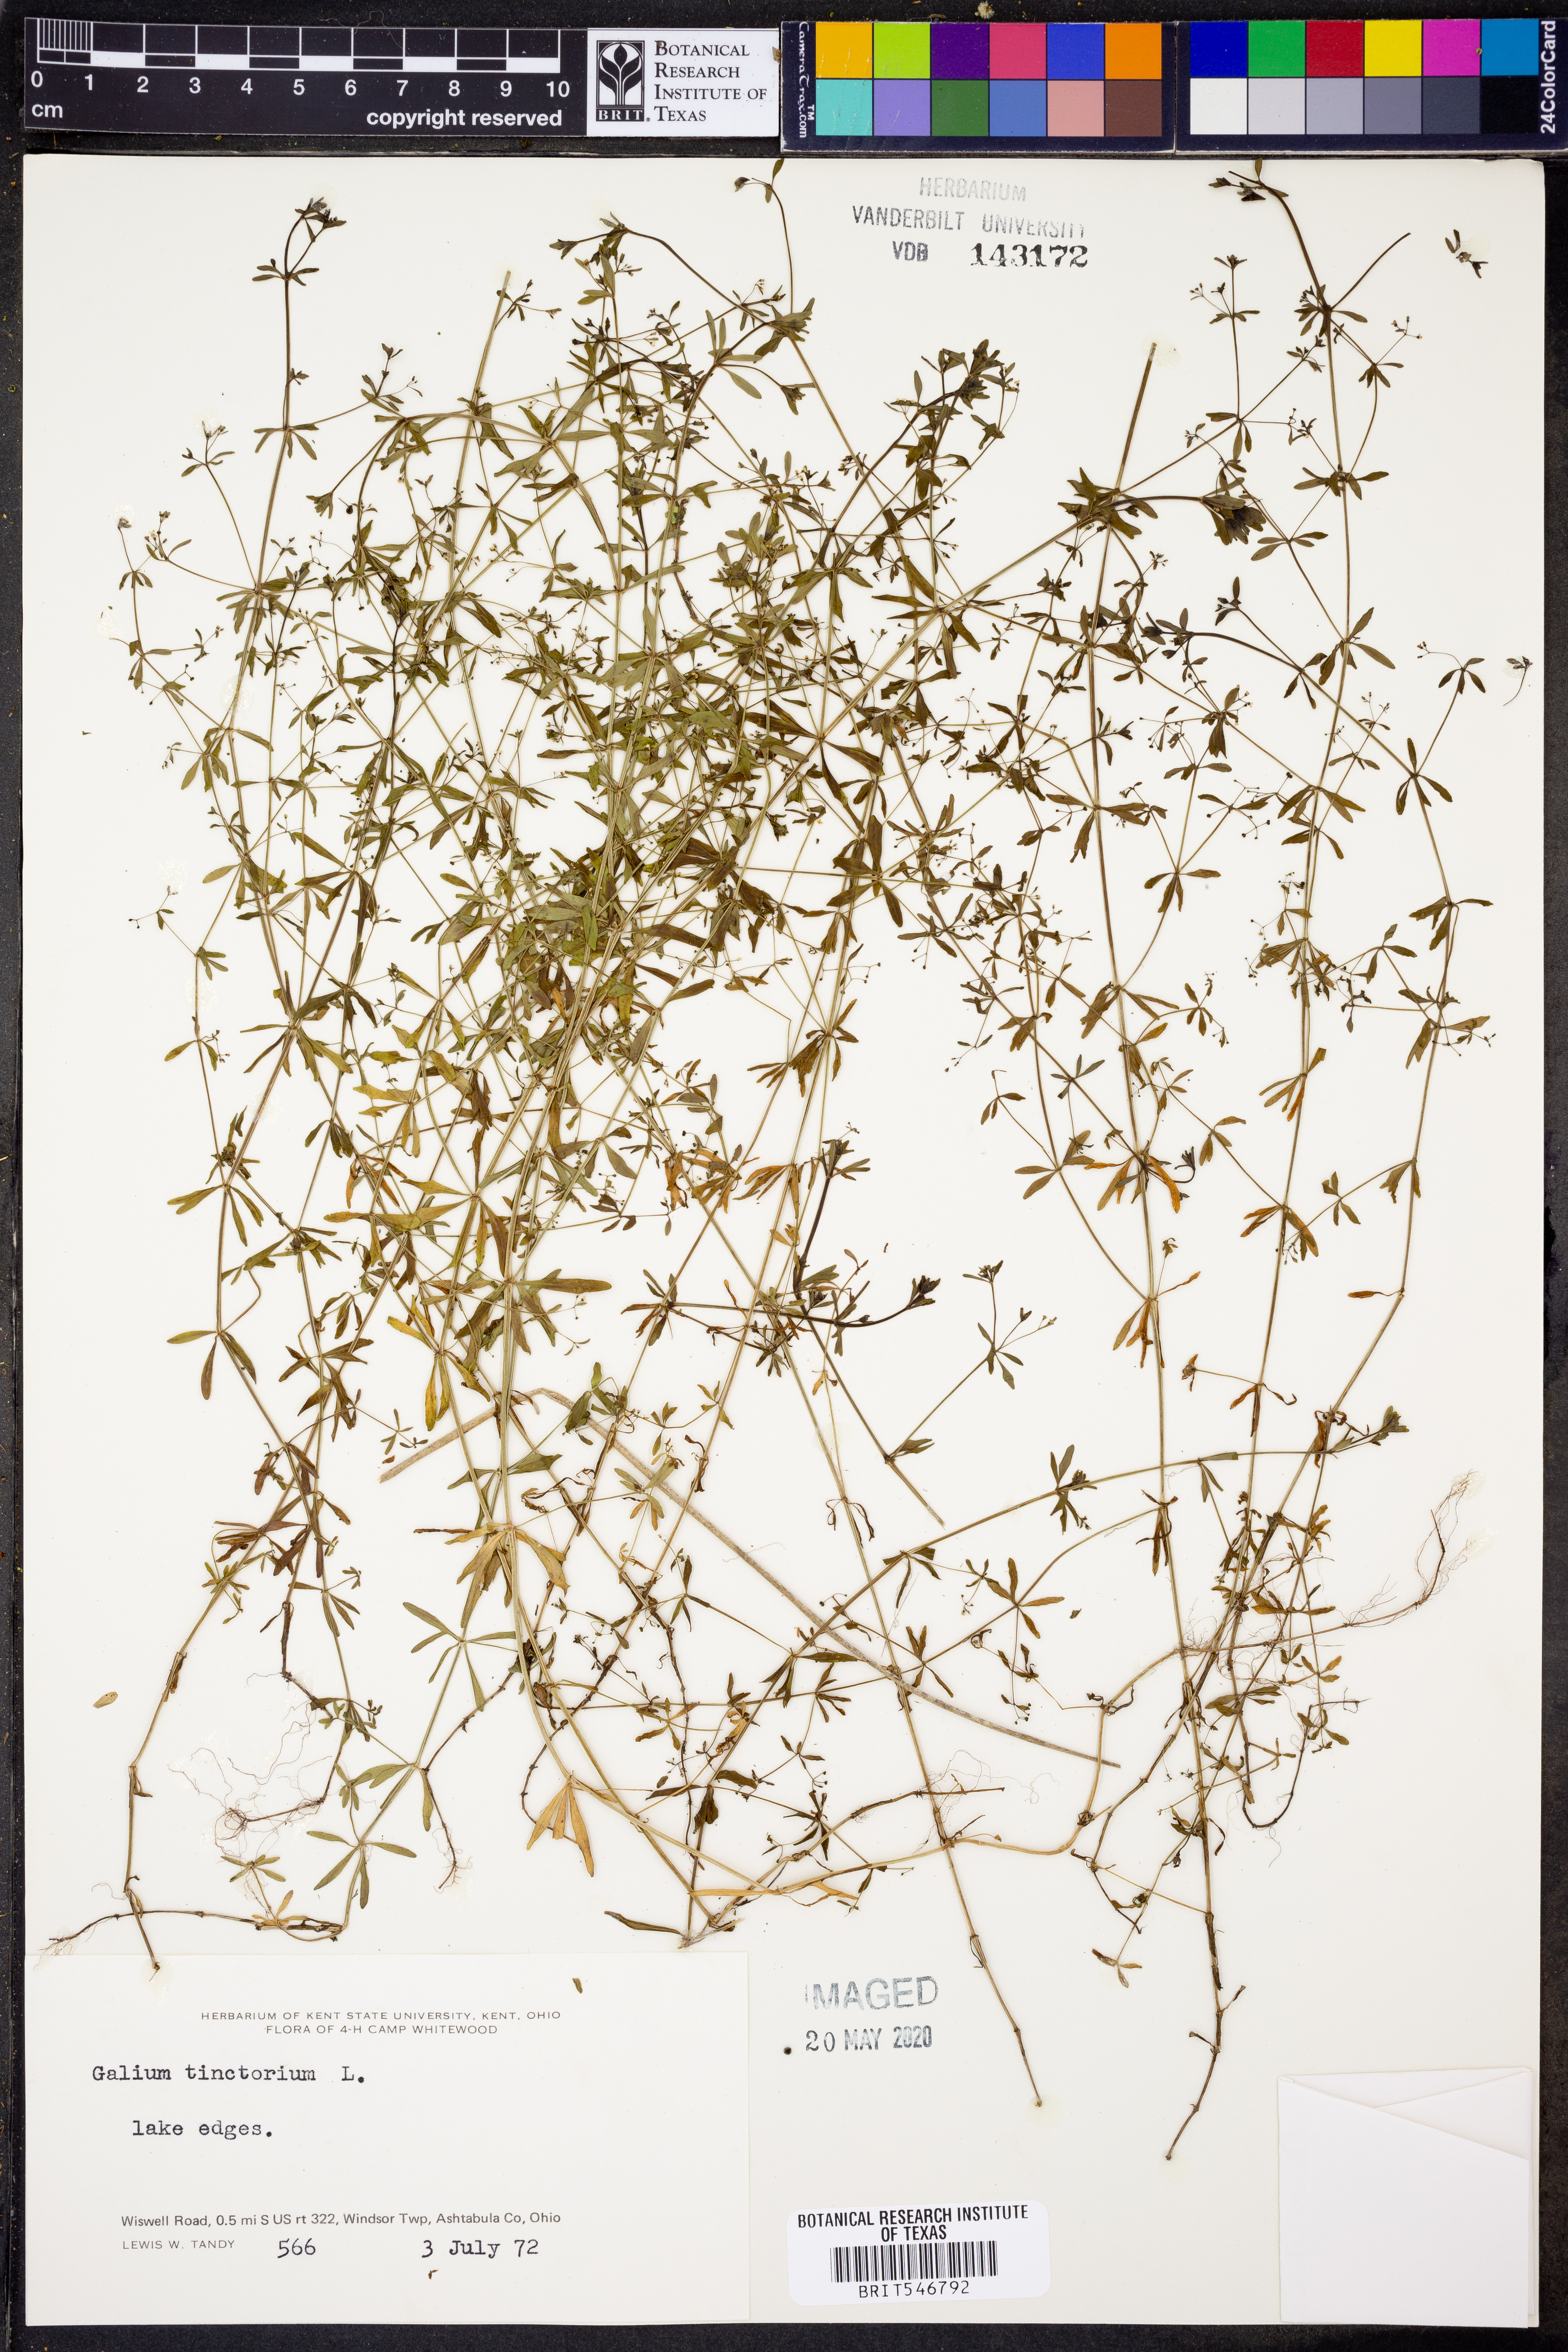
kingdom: Plantae
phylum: Tracheophyta
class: Magnoliopsida
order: Gentianales
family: Rubiaceae
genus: Asperula
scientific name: Asperula tinctoria
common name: Dyer's woodruff
